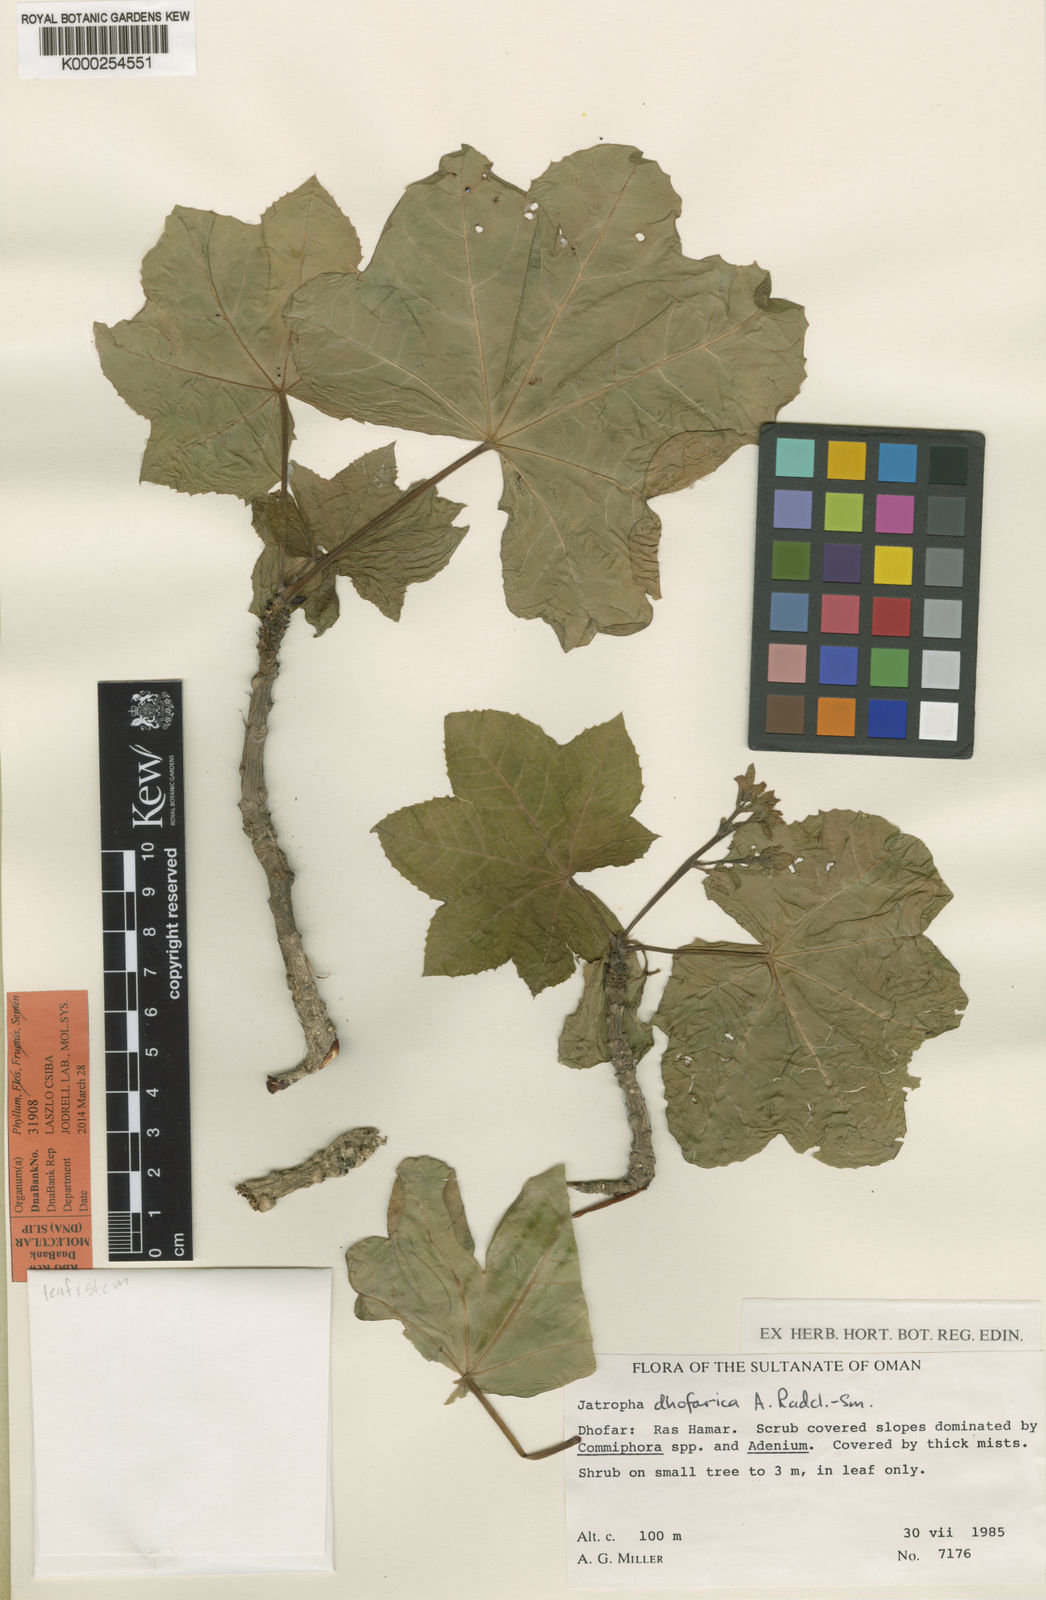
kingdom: Plantae
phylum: Tracheophyta
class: Magnoliopsida
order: Malpighiales
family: Euphorbiaceae
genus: Jatropha
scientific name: Jatropha dhofarica
